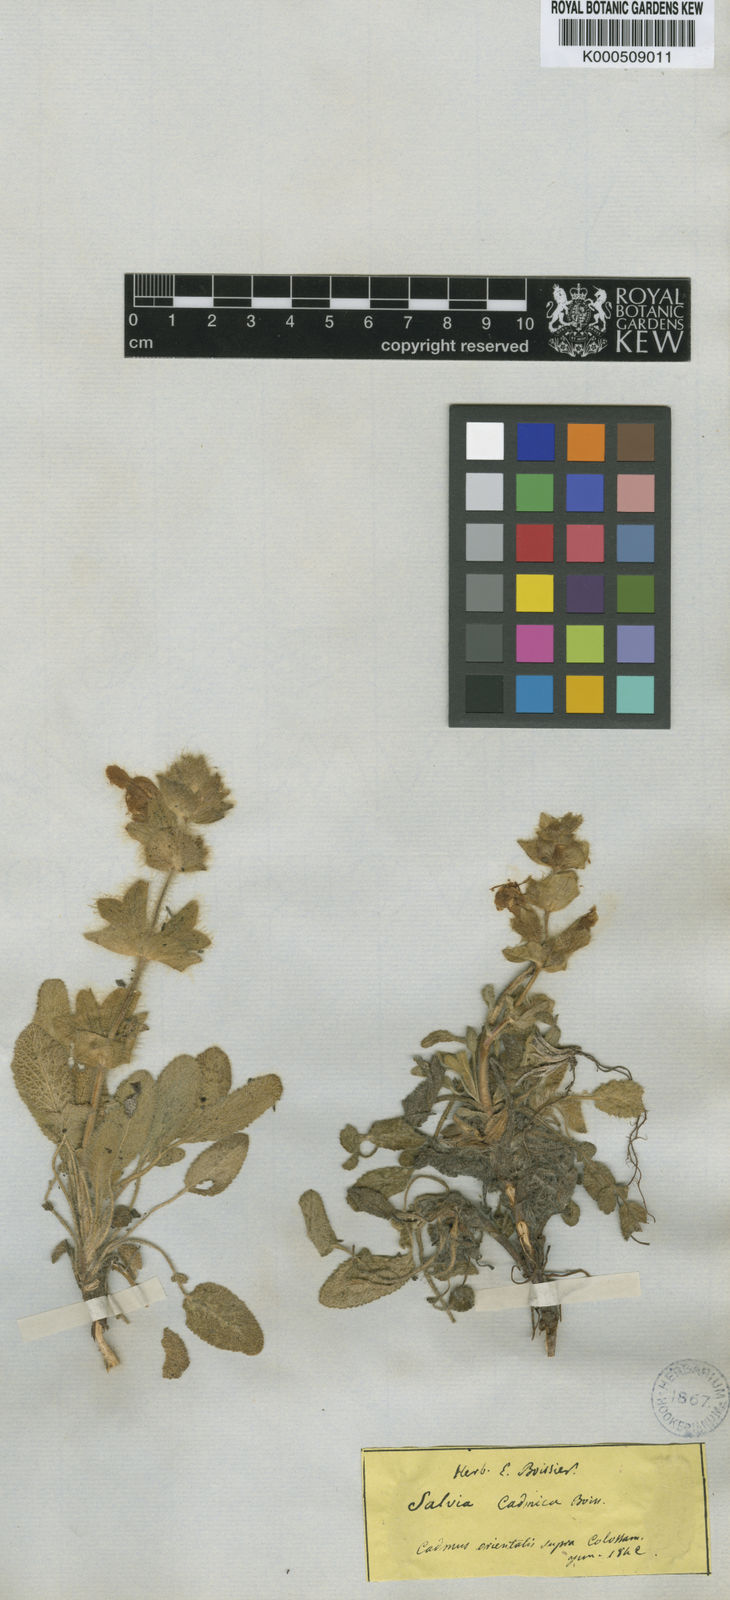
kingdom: Plantae
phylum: Tracheophyta
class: Magnoliopsida
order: Lamiales
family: Lamiaceae
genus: Salvia
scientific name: Salvia cadmica
